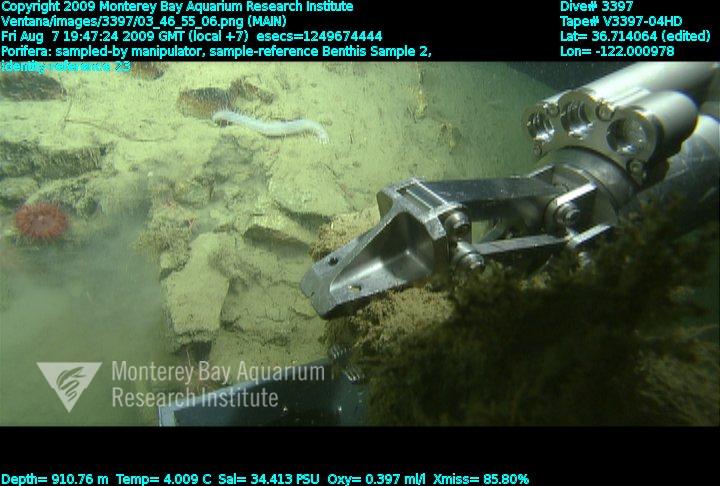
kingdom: Animalia
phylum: Porifera
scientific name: Porifera
